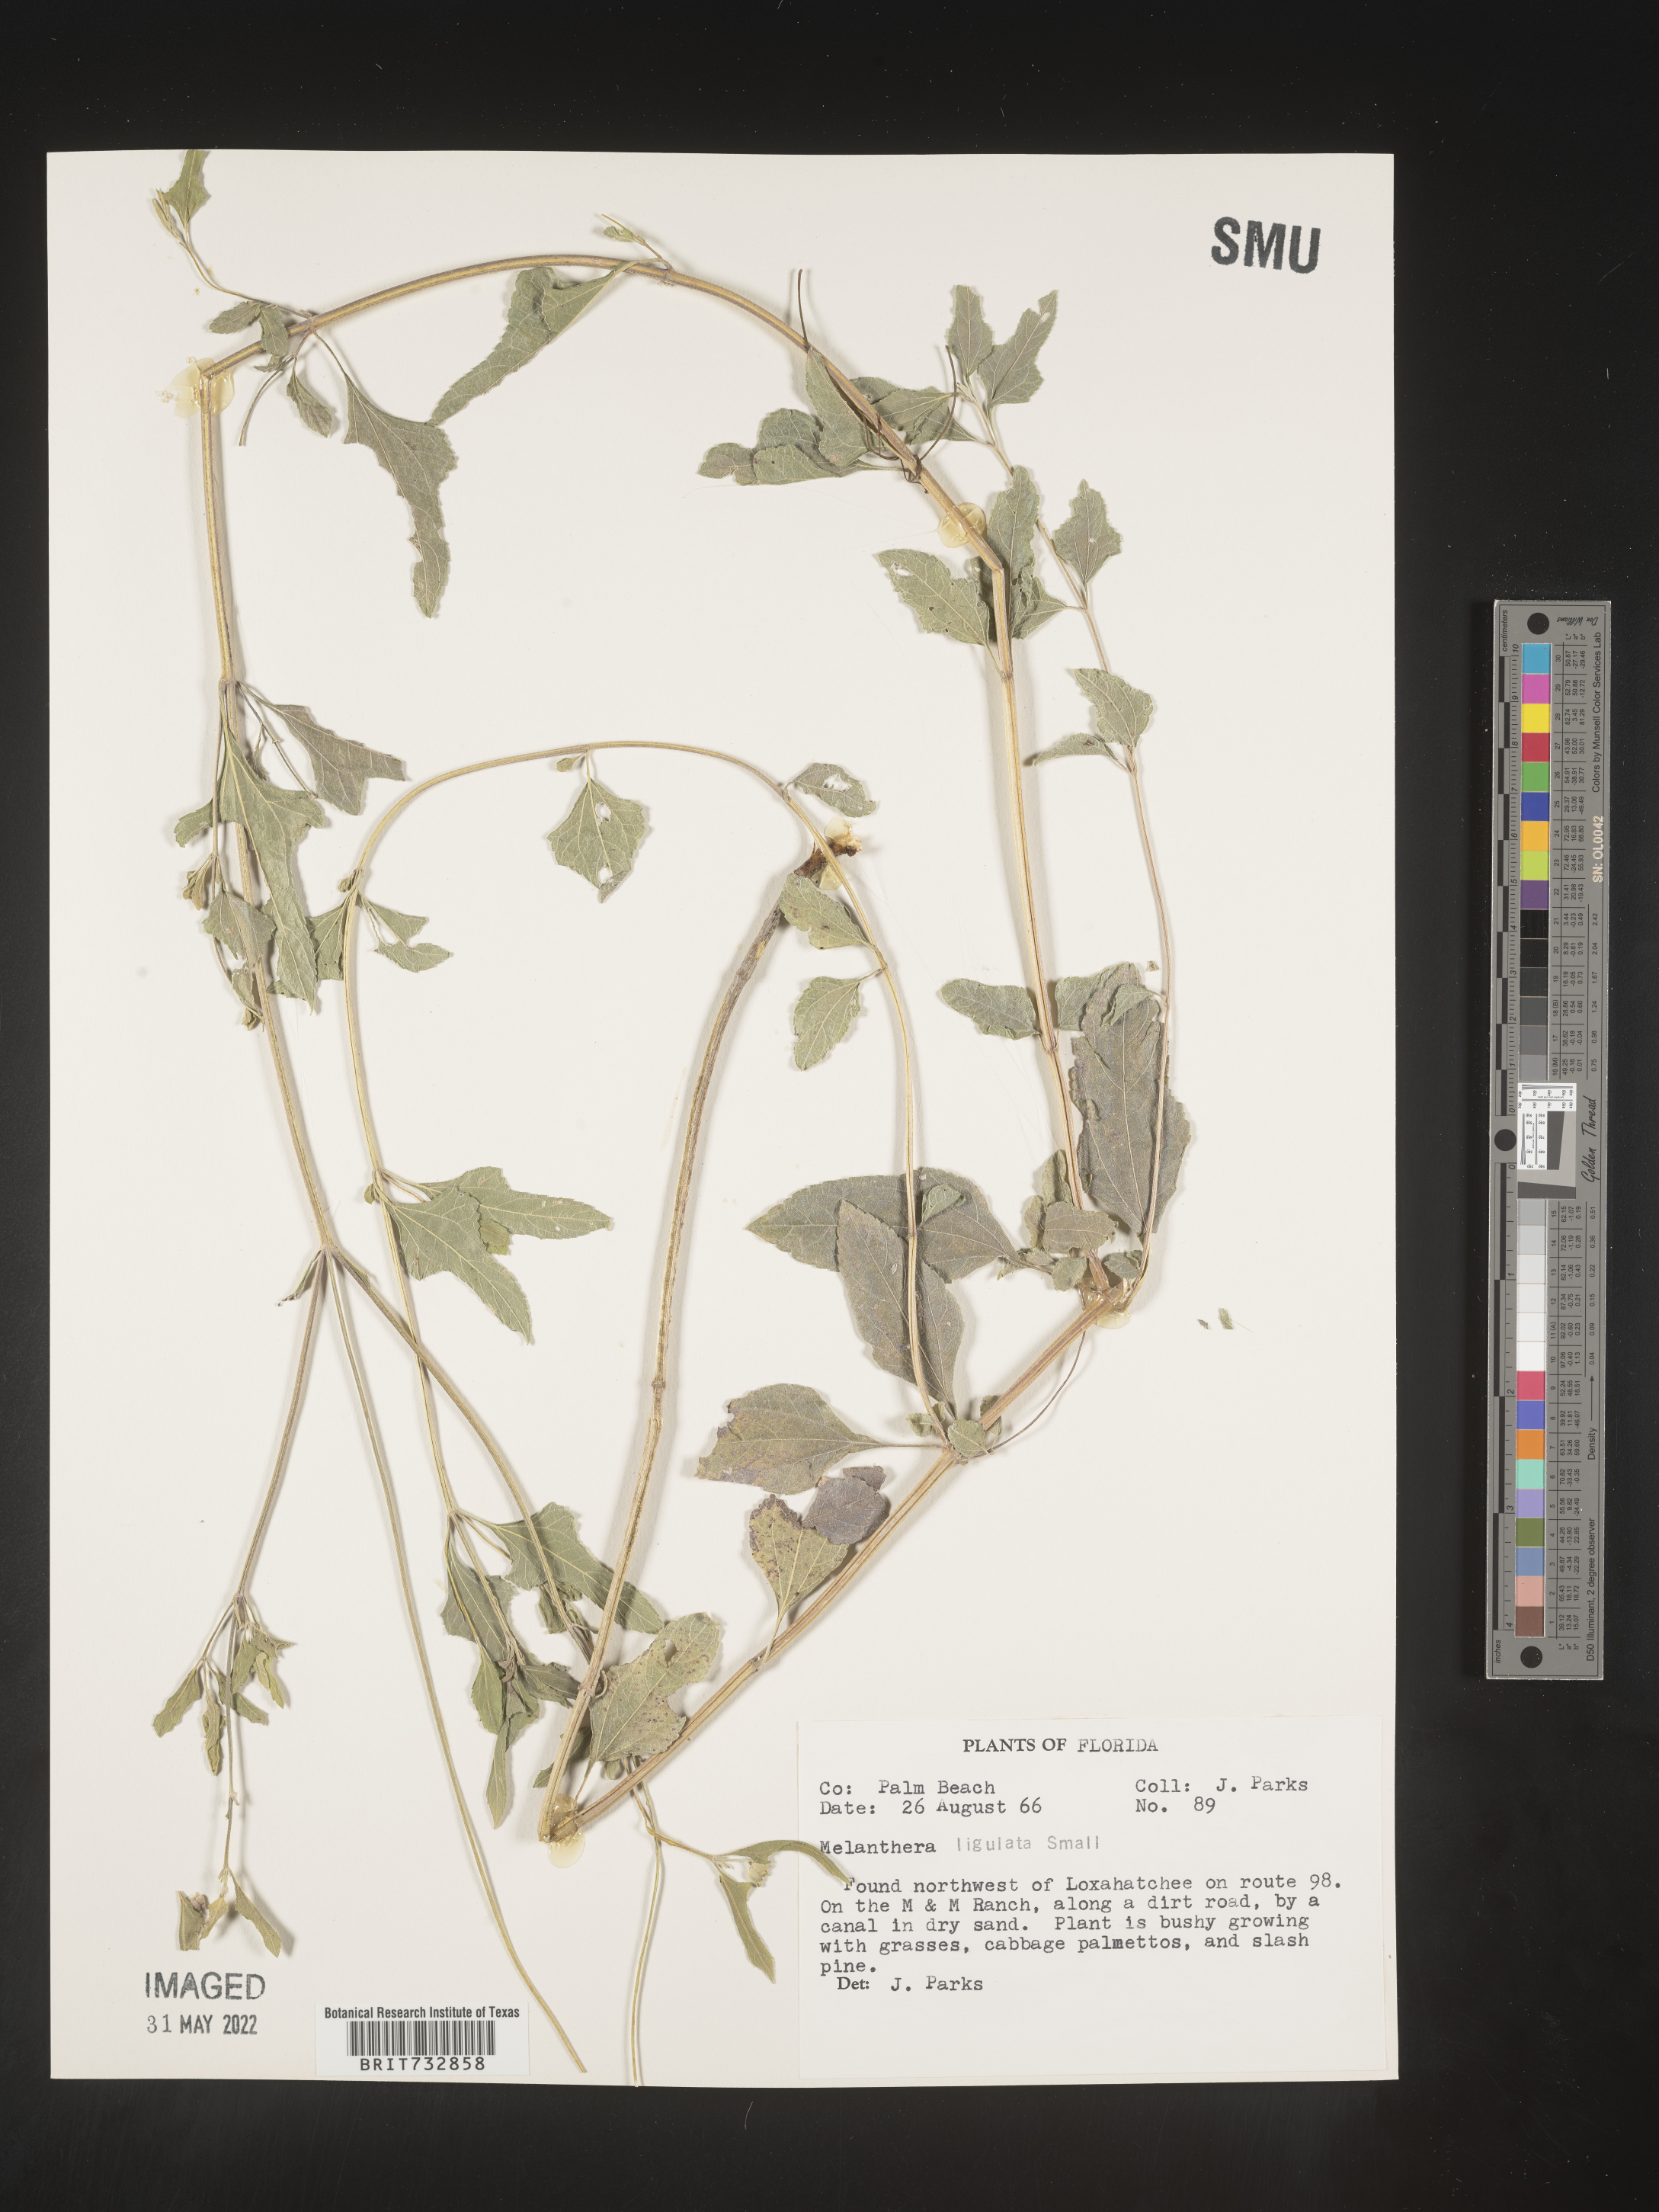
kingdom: Plantae
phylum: Tracheophyta
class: Magnoliopsida
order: Asterales
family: Asteraceae
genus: Melanthera
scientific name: Melanthera nivea
